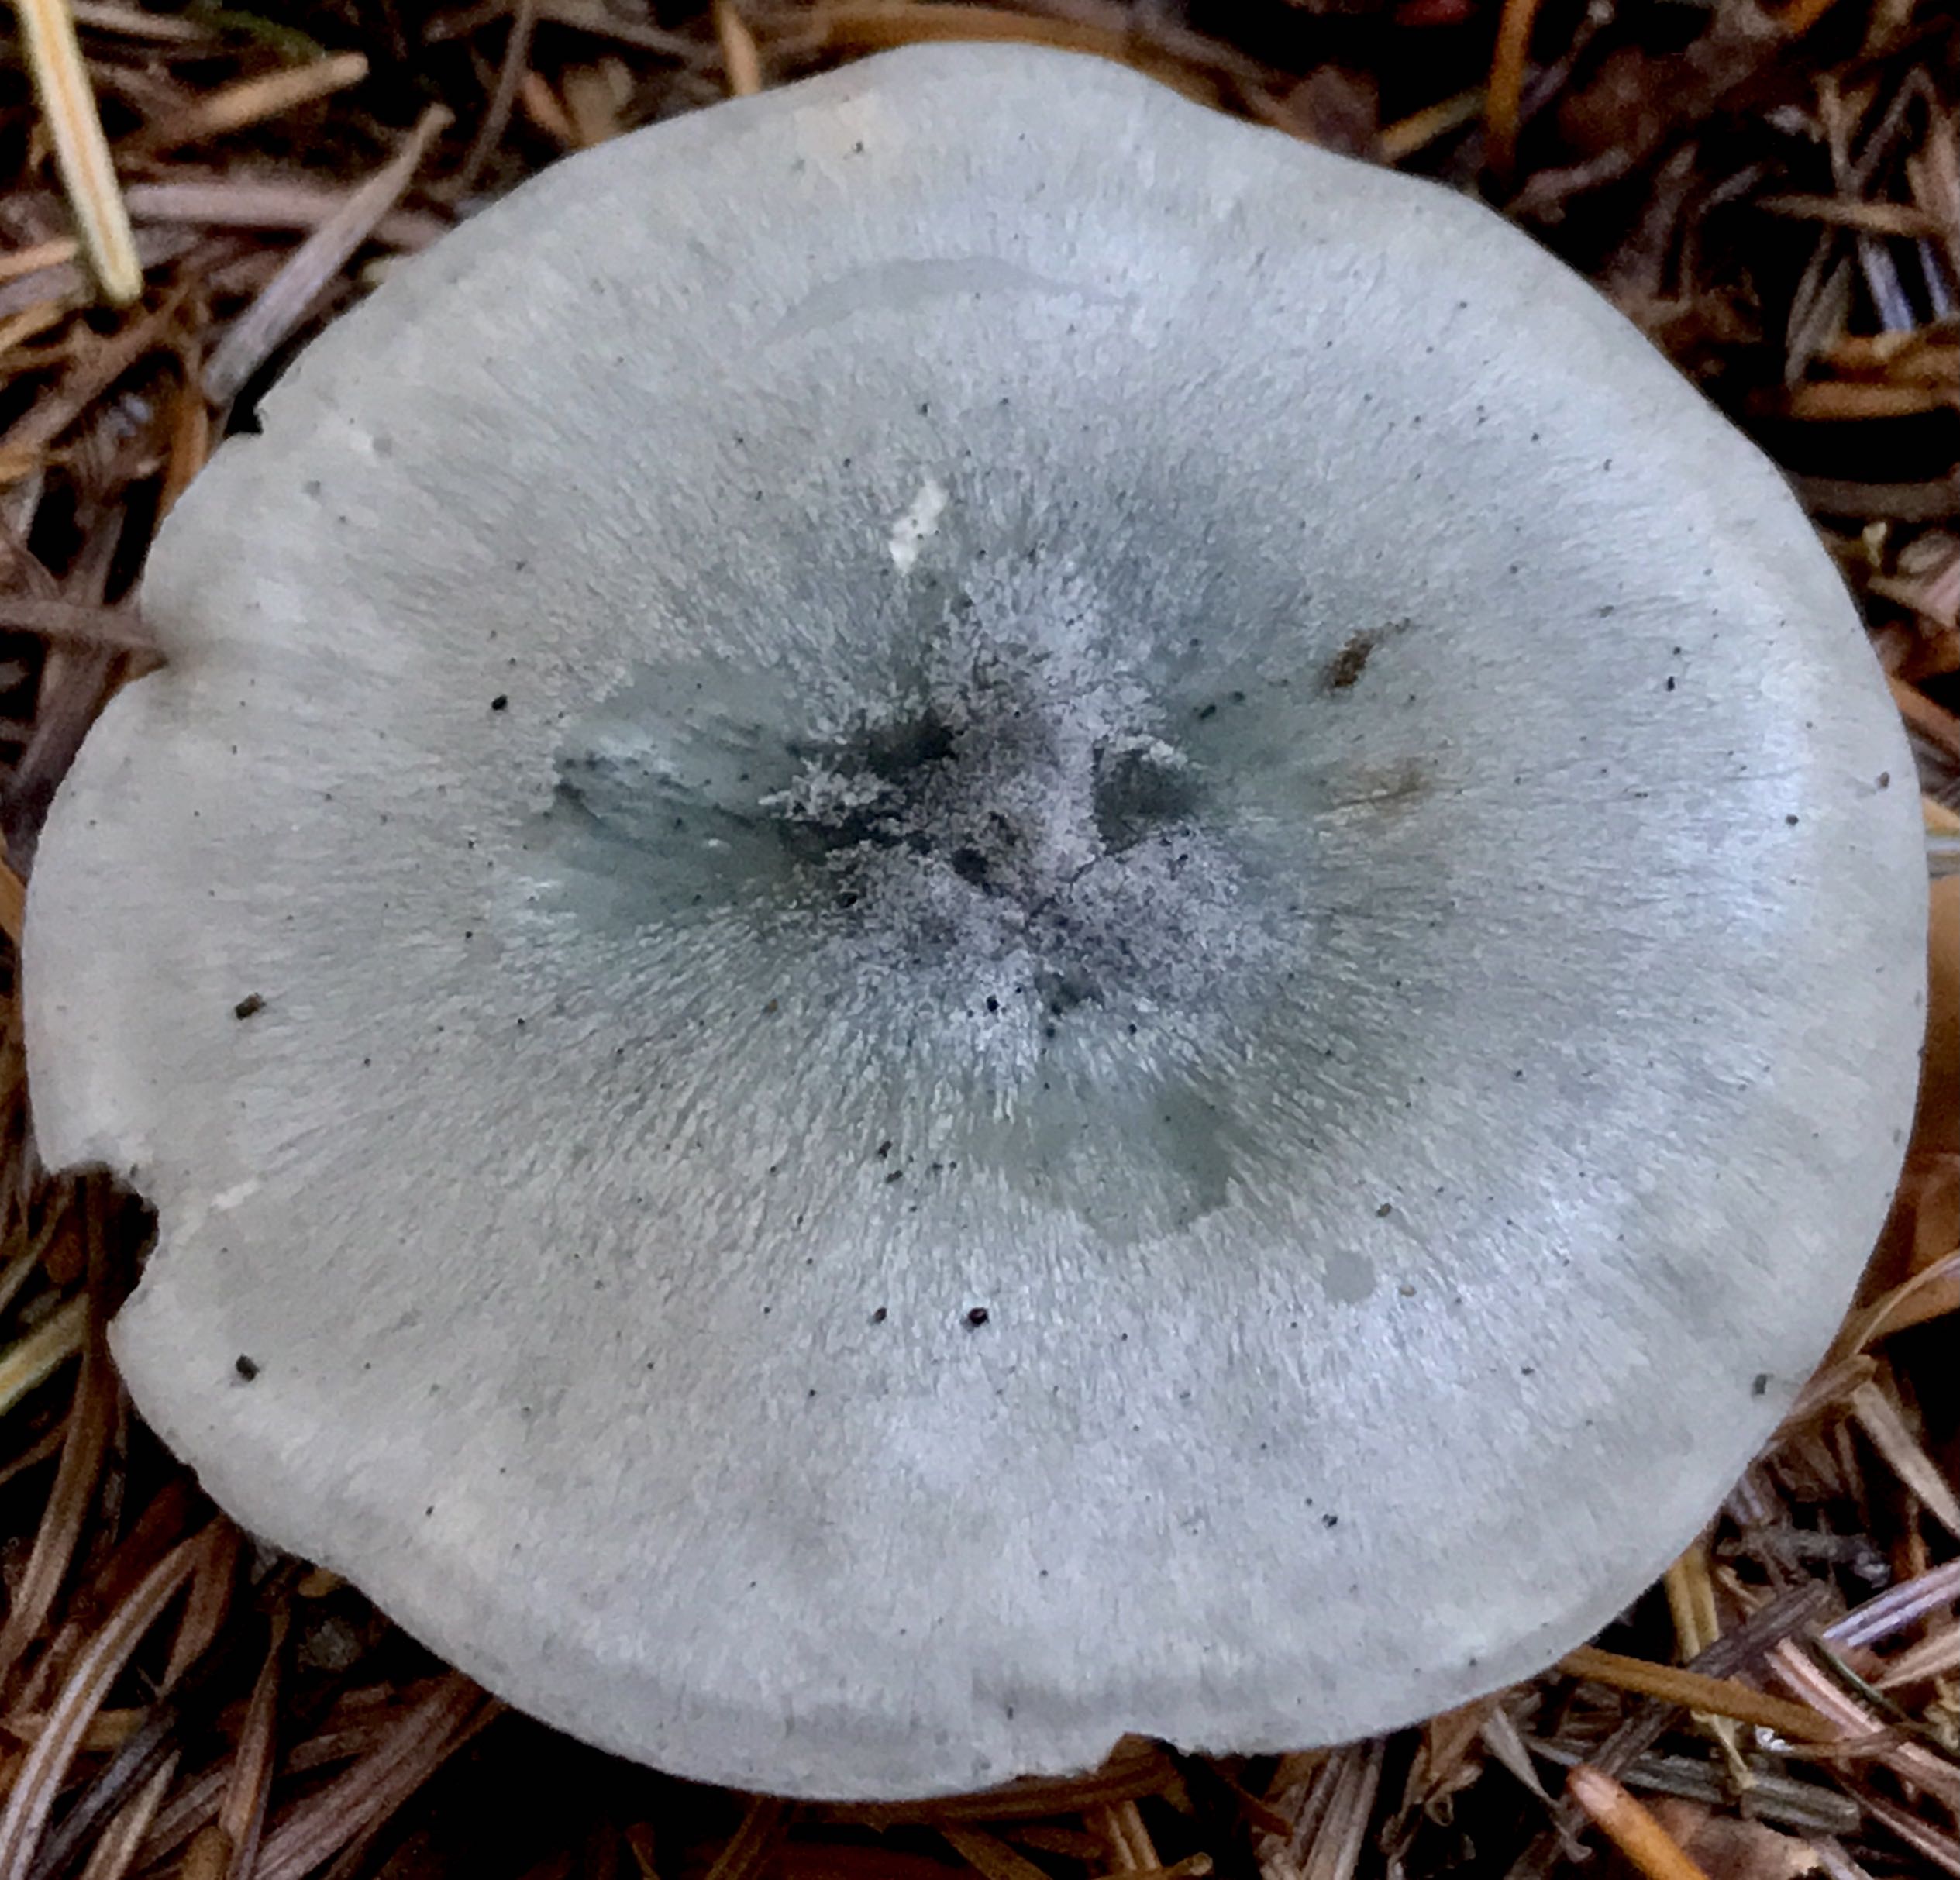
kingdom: Fungi
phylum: Basidiomycota
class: Agaricomycetes
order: Agaricales
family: Tricholomataceae
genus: Clitocybe
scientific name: Clitocybe odora
